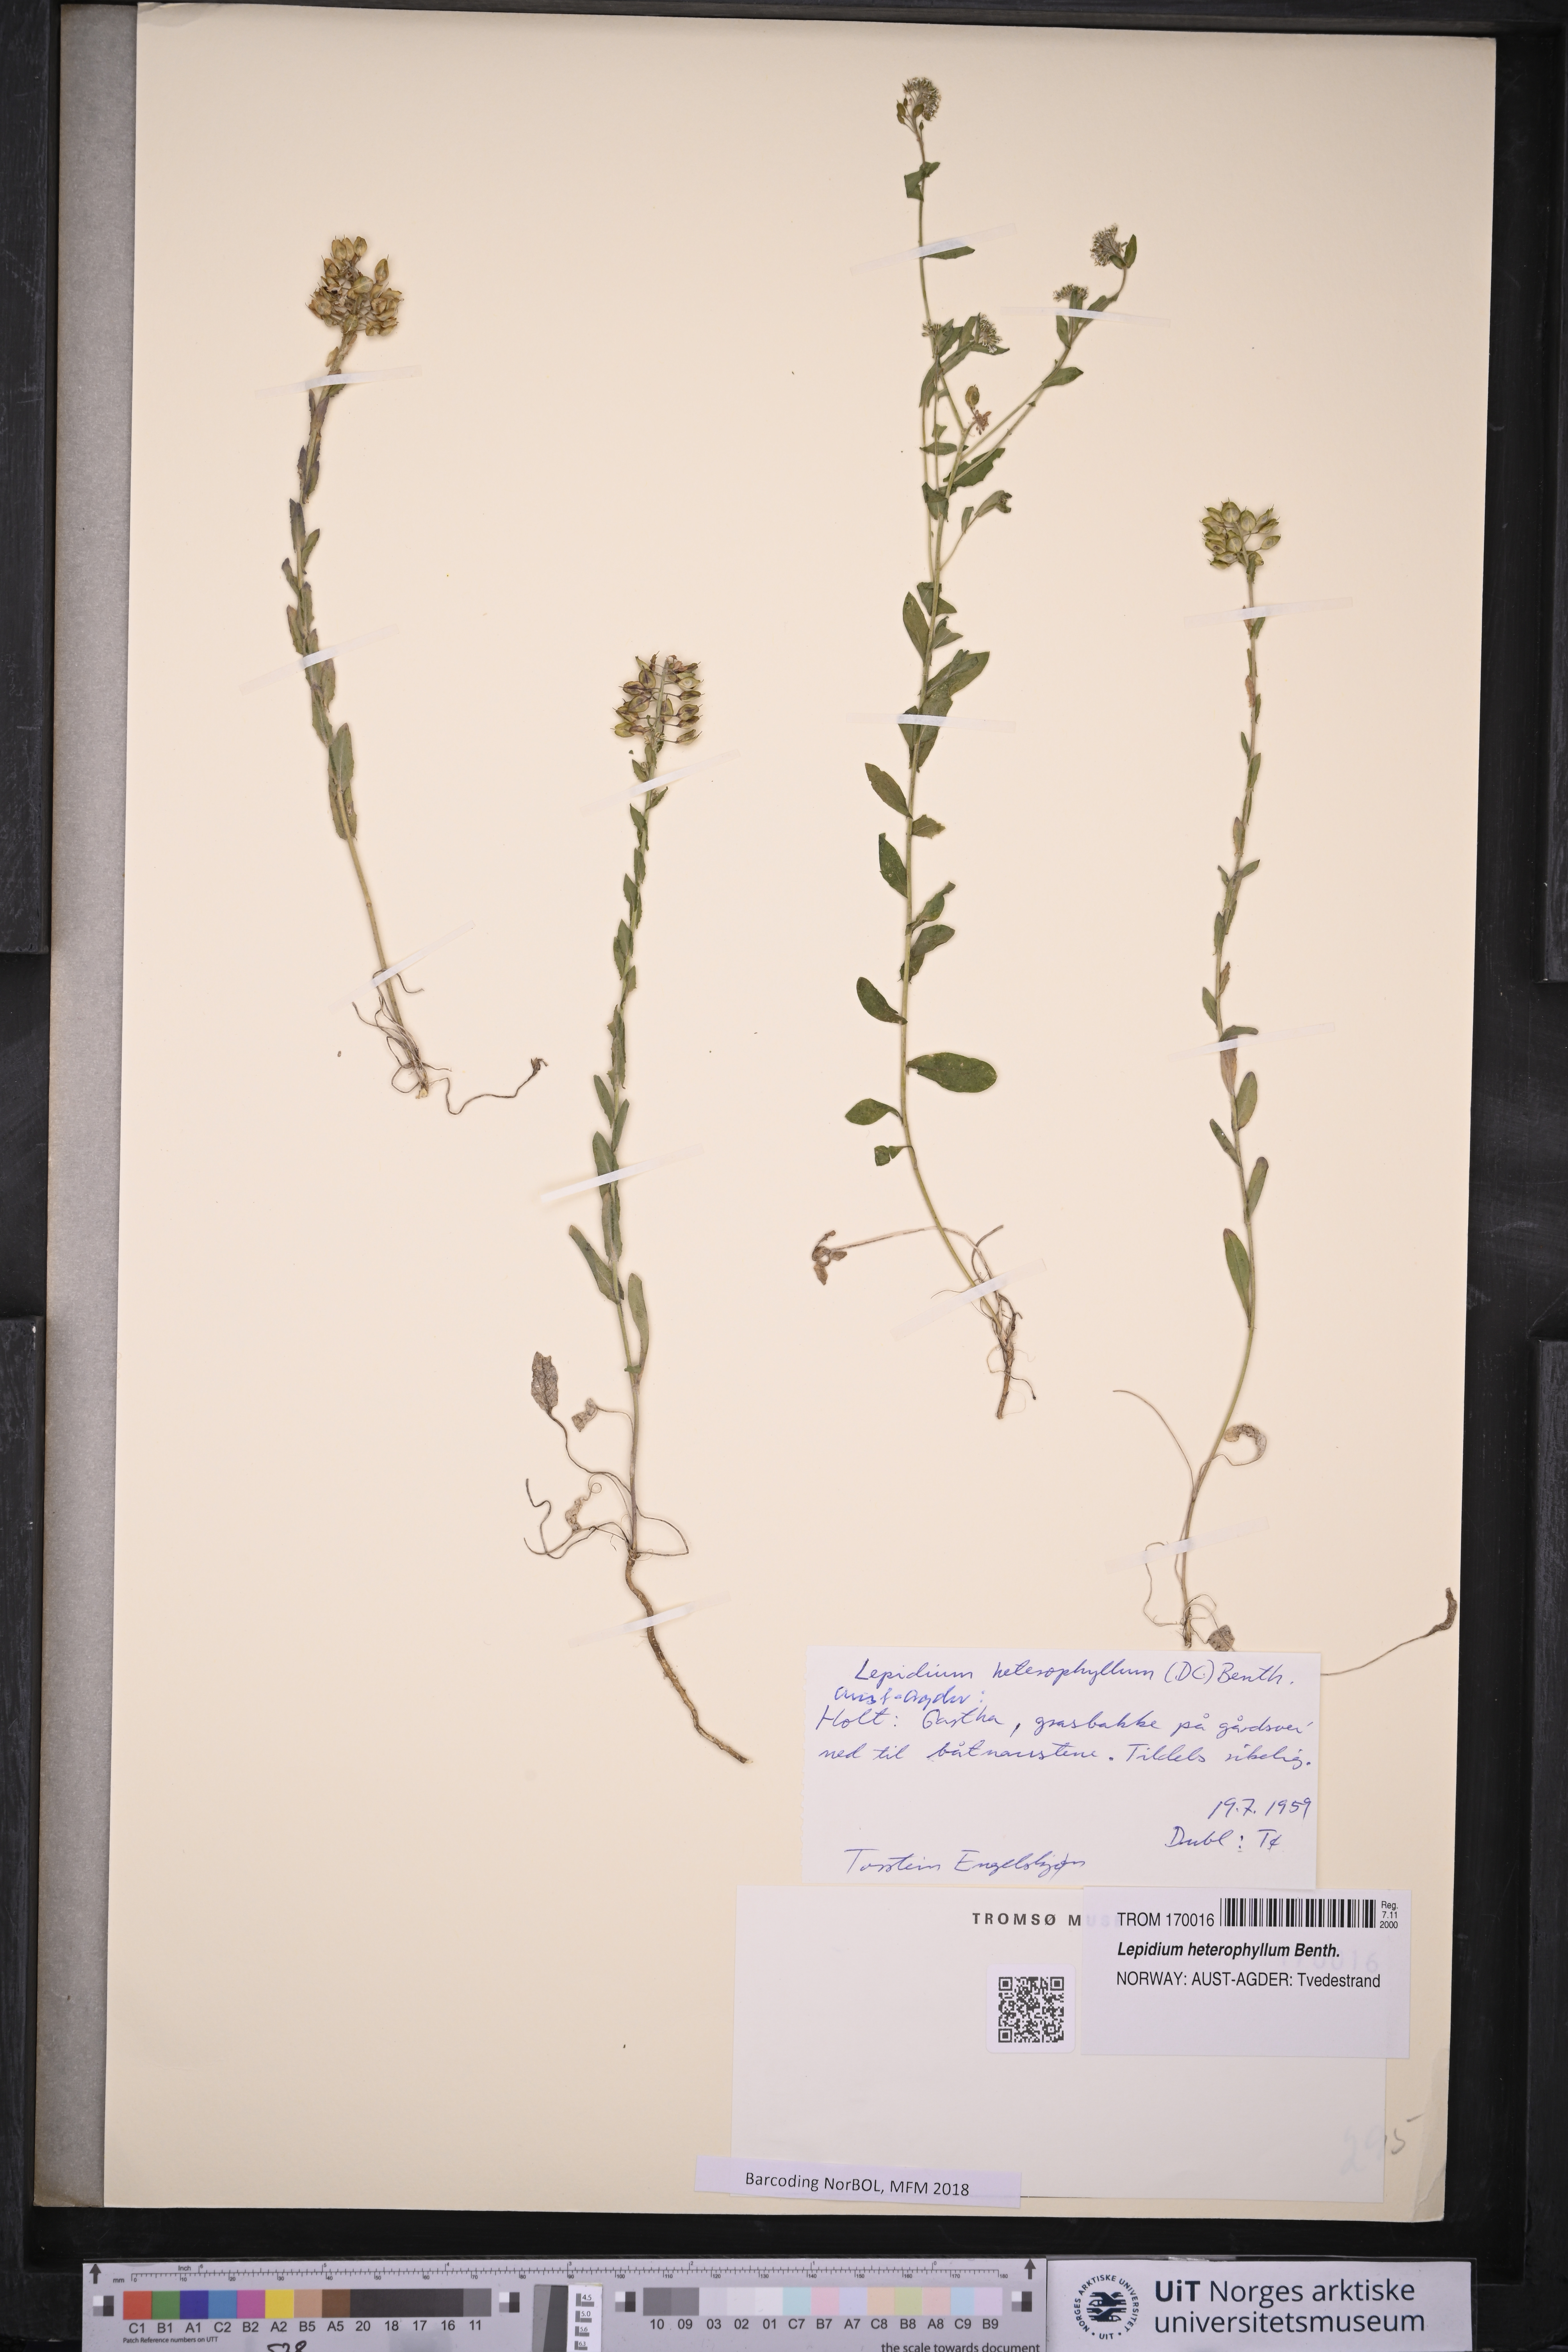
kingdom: Plantae
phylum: Tracheophyta
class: Magnoliopsida
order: Brassicales
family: Brassicaceae
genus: Lepidium
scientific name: Lepidium heterophyllum
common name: Smith's pepperwort
